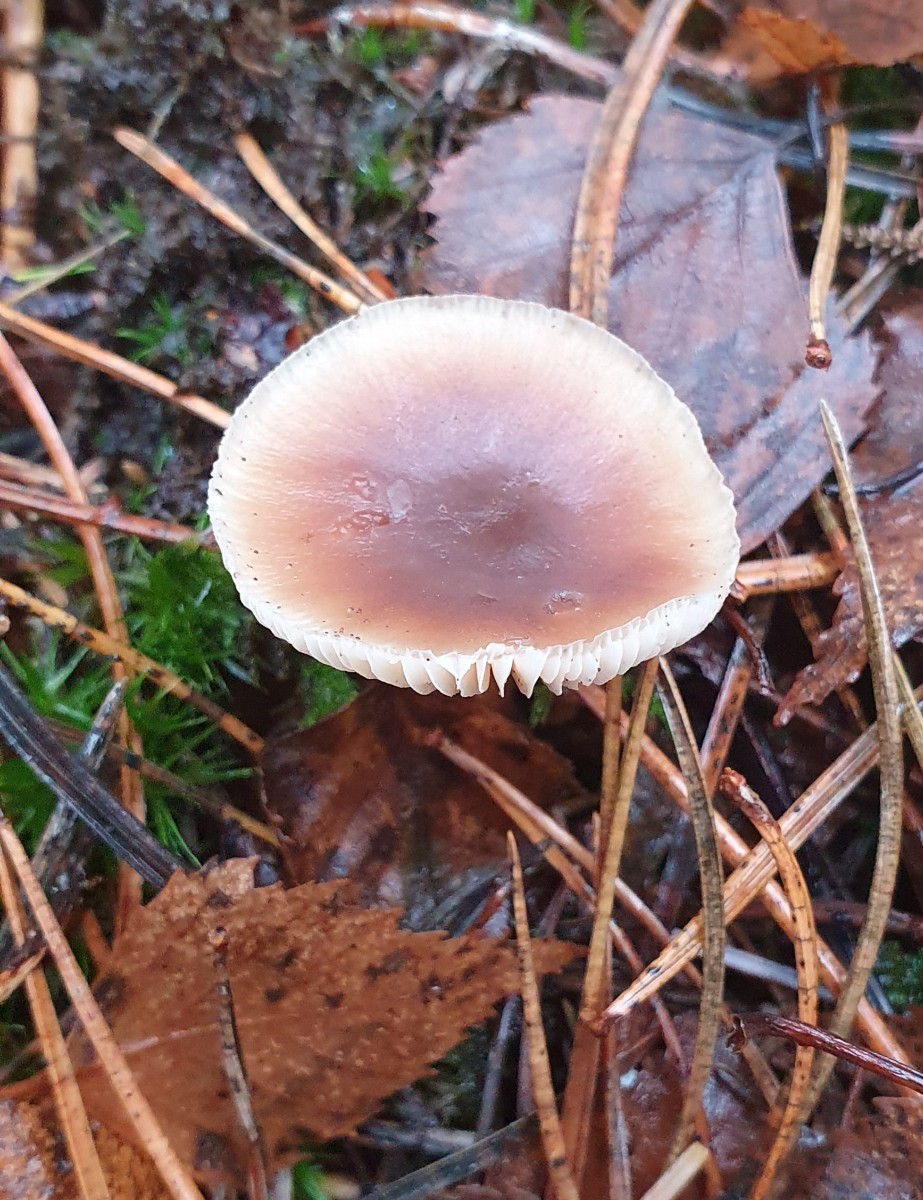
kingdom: Fungi
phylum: Basidiomycota
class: Agaricomycetes
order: Agaricales
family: Omphalotaceae
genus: Rhodocollybia
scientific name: Rhodocollybia asema
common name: horngrå fladhat
